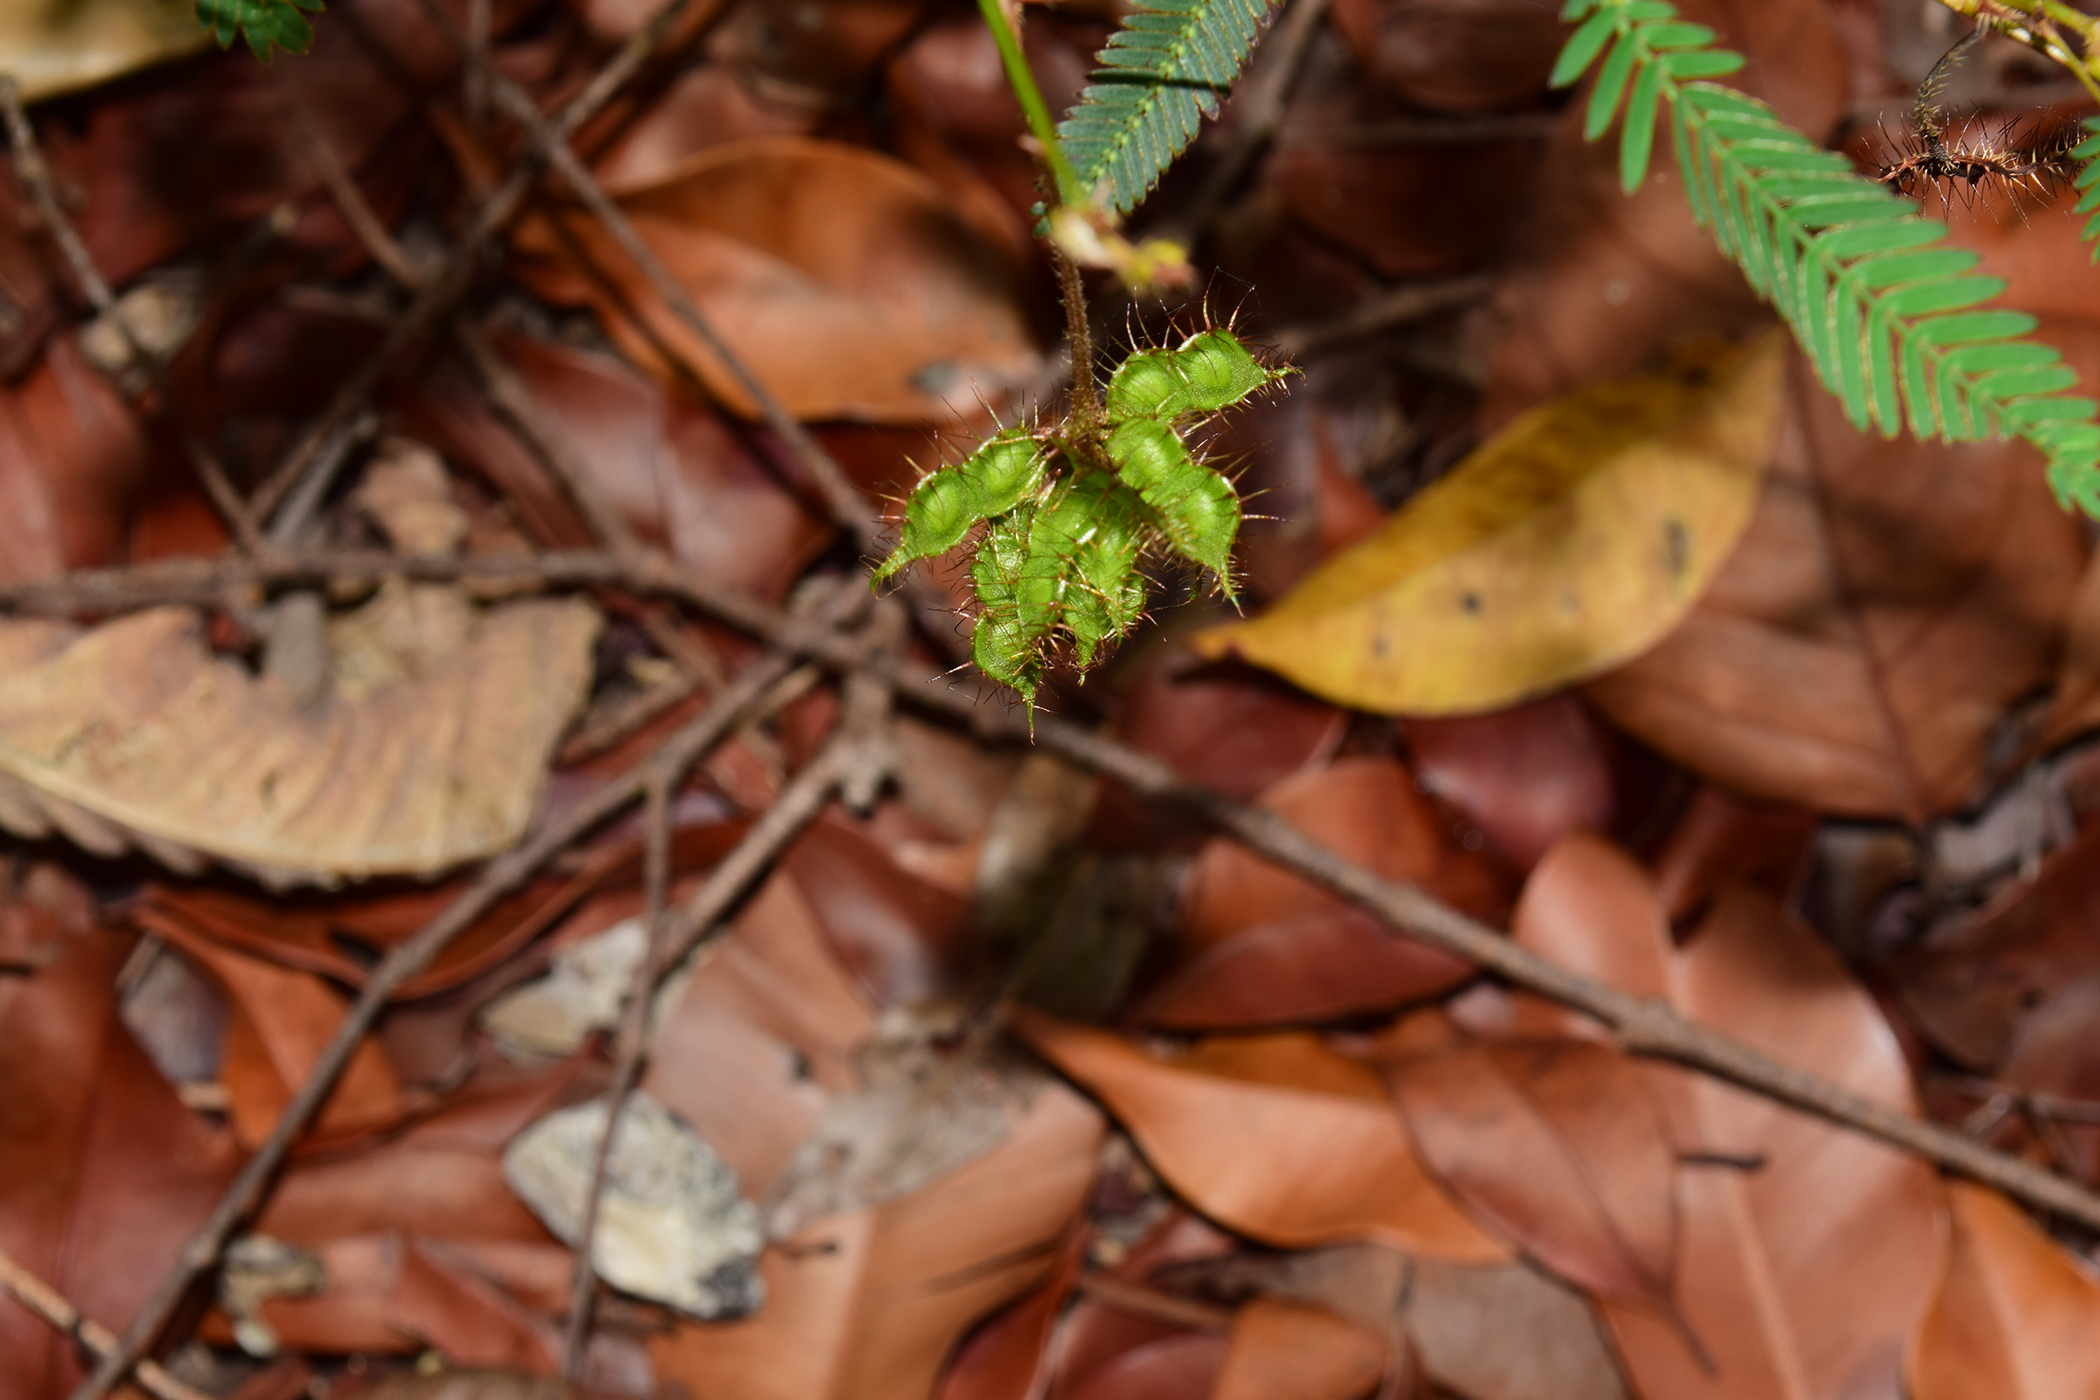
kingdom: Plantae
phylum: Tracheophyta
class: Magnoliopsida
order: Fabales
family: Fabaceae
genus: Mimosa
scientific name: Mimosa pudica
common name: Sensitive plant
